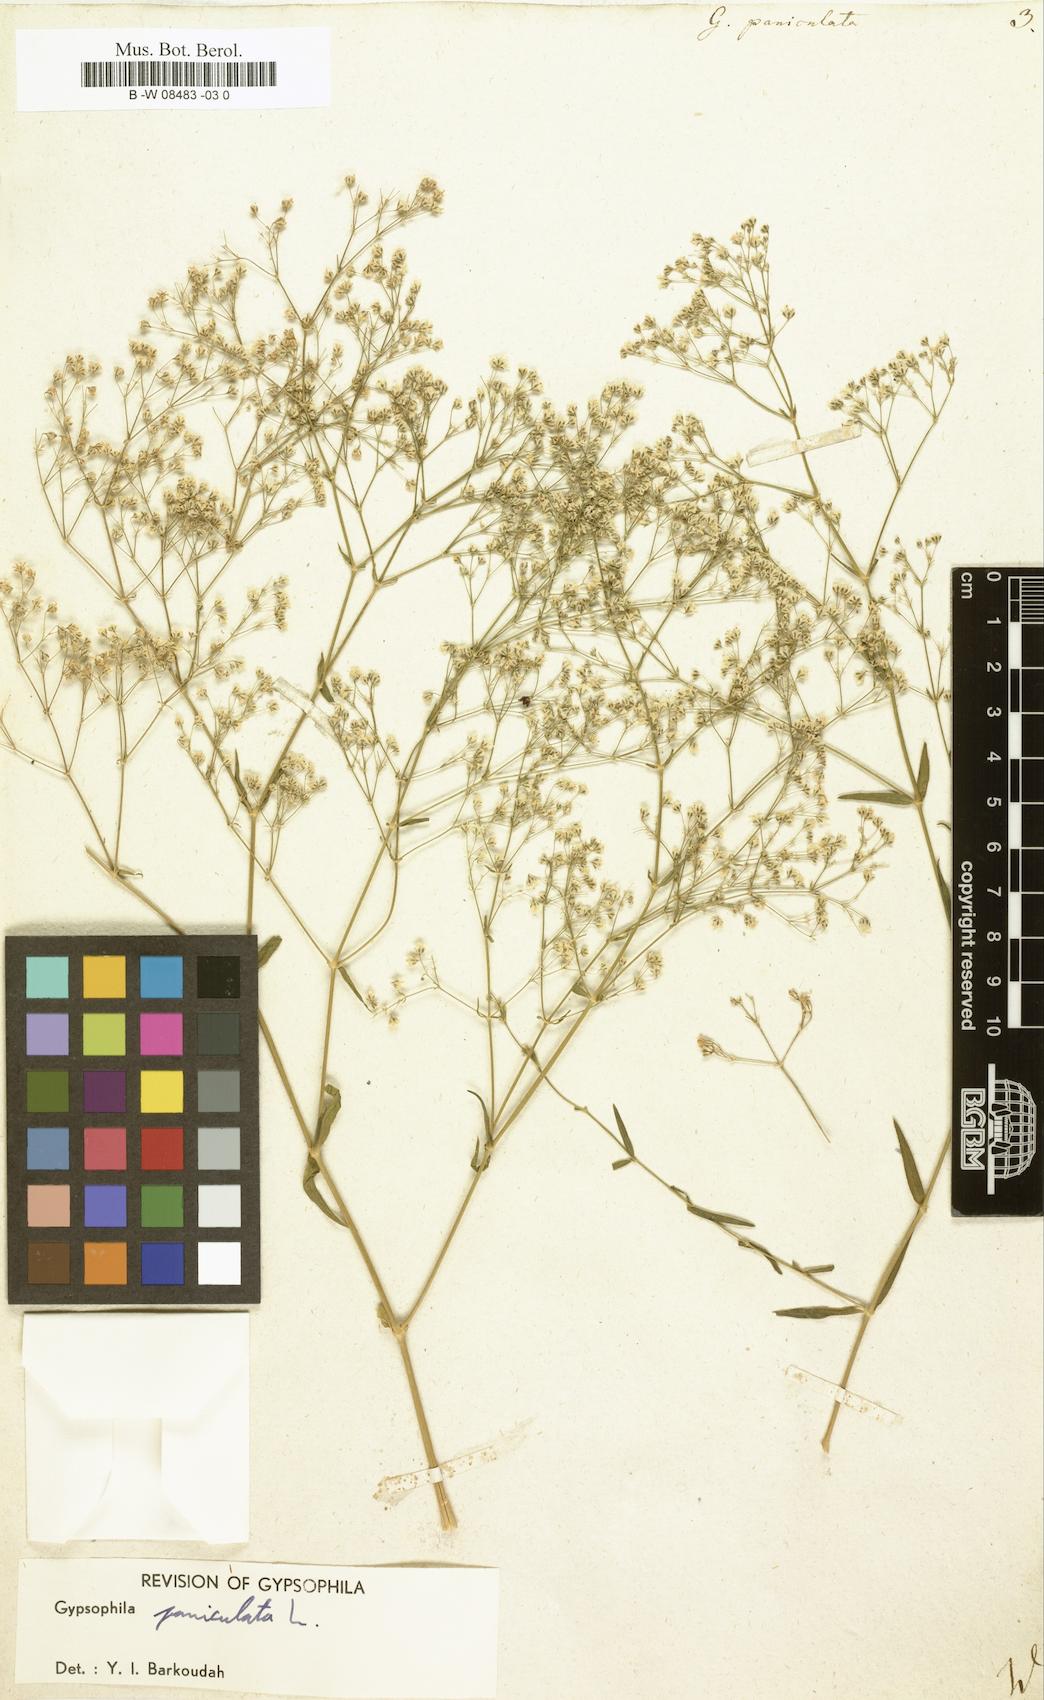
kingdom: Plantae
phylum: Tracheophyta
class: Magnoliopsida
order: Caryophyllales
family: Caryophyllaceae
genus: Gypsophila
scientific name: Gypsophila paniculata
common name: Baby's-breath
